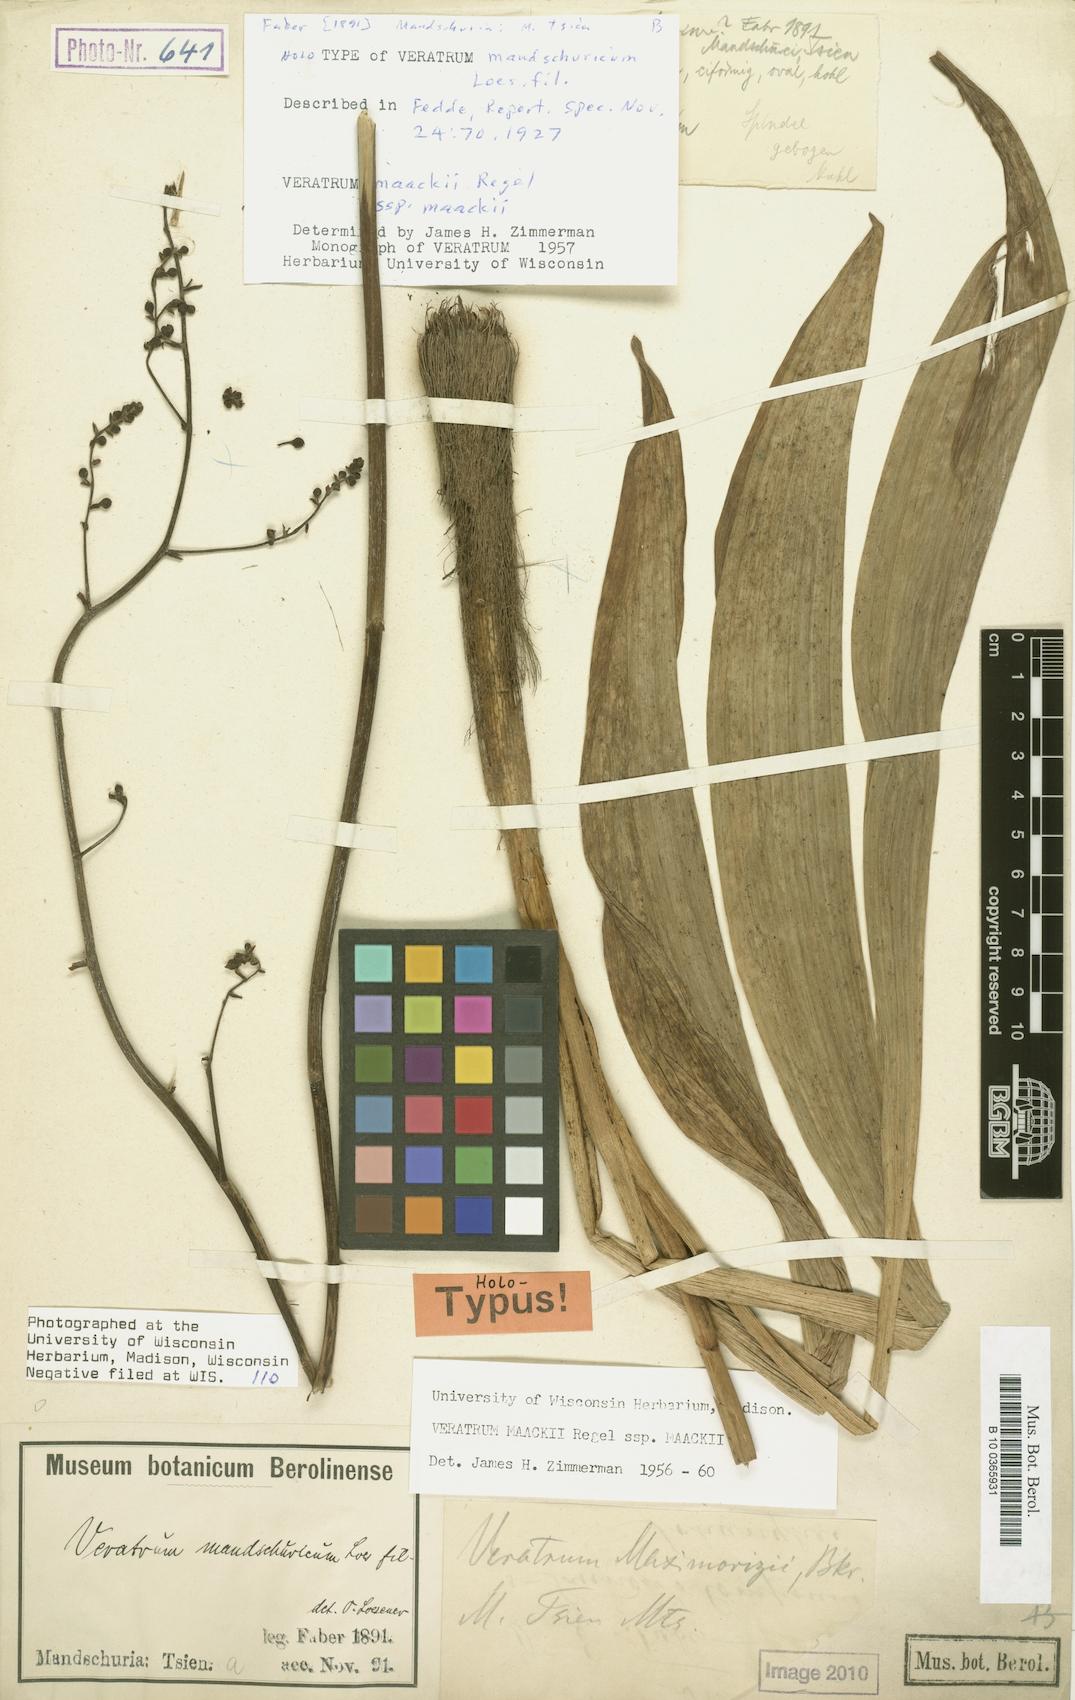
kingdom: Plantae
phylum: Tracheophyta
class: Liliopsida
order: Liliales
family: Melanthiaceae
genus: Veratrum
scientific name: Veratrum maackii
